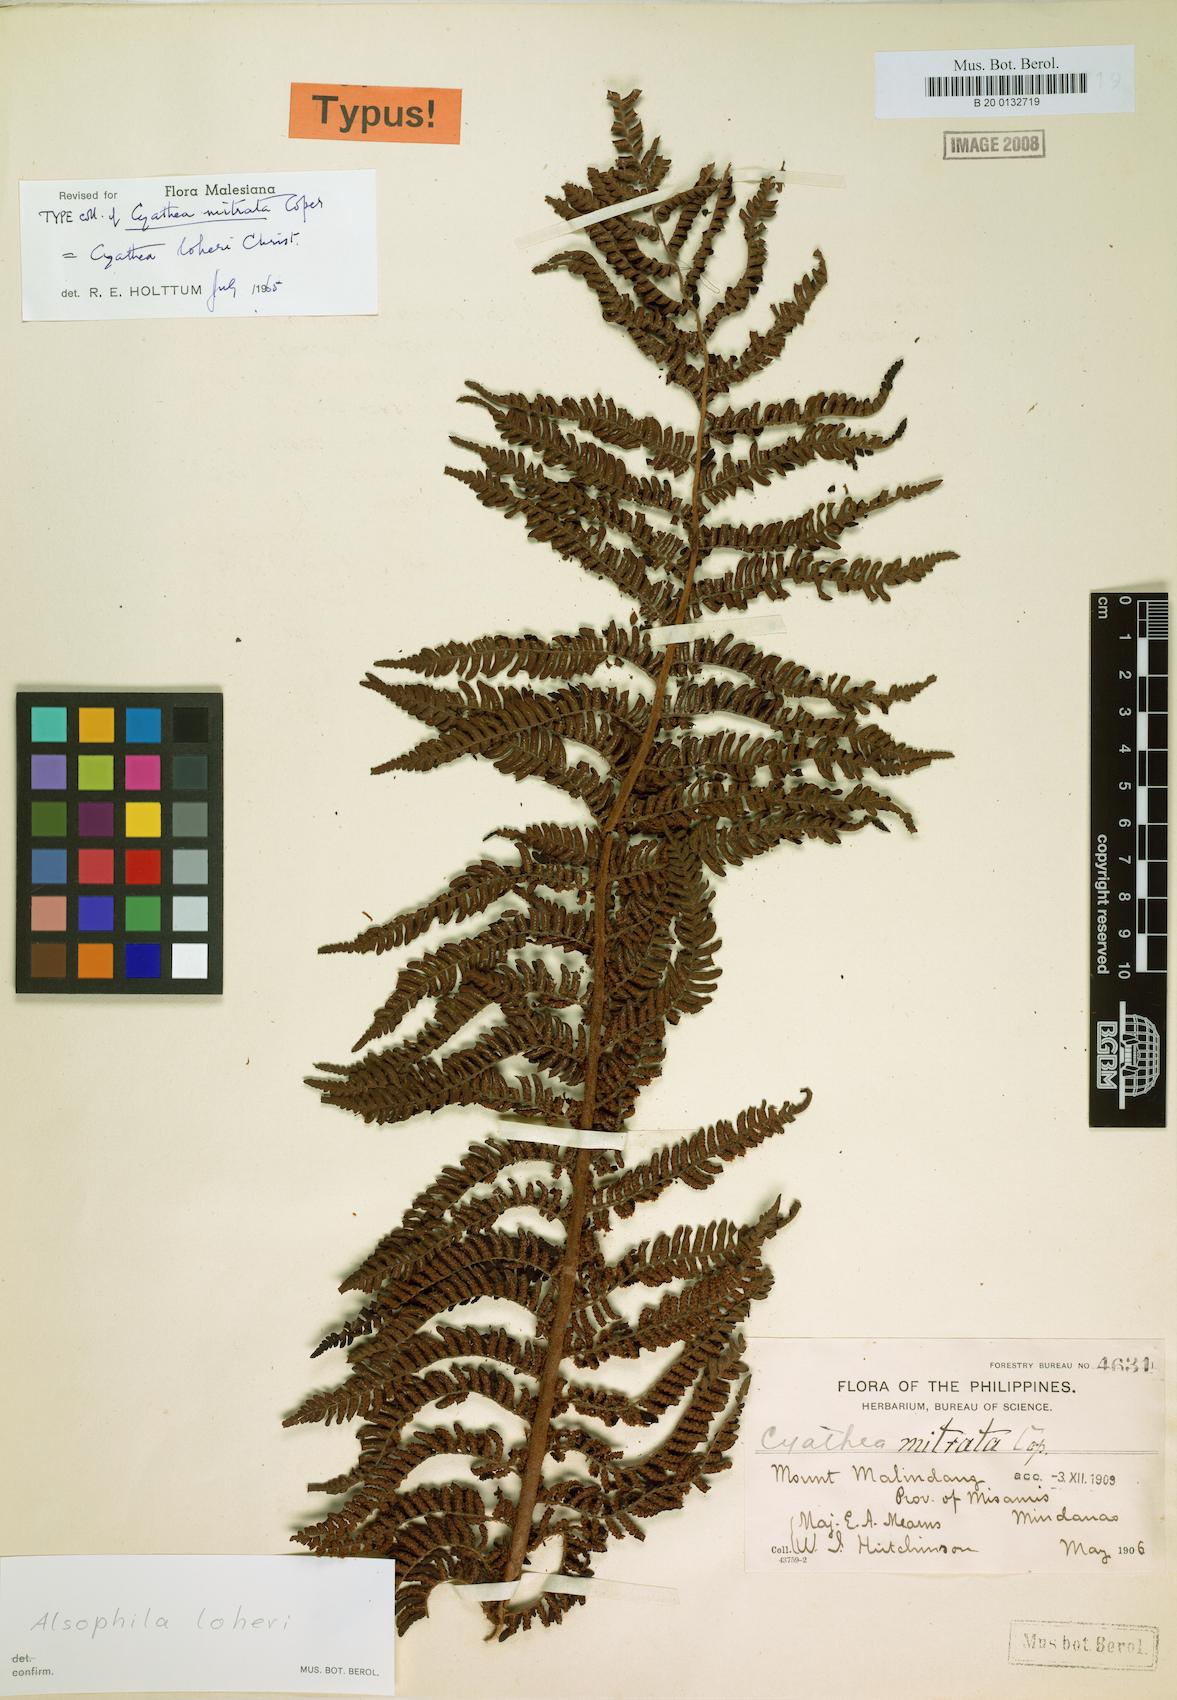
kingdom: Plantae
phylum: Tracheophyta
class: Polypodiopsida
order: Cyatheales
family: Cyatheaceae
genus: Alsophila
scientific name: Alsophila loheri
